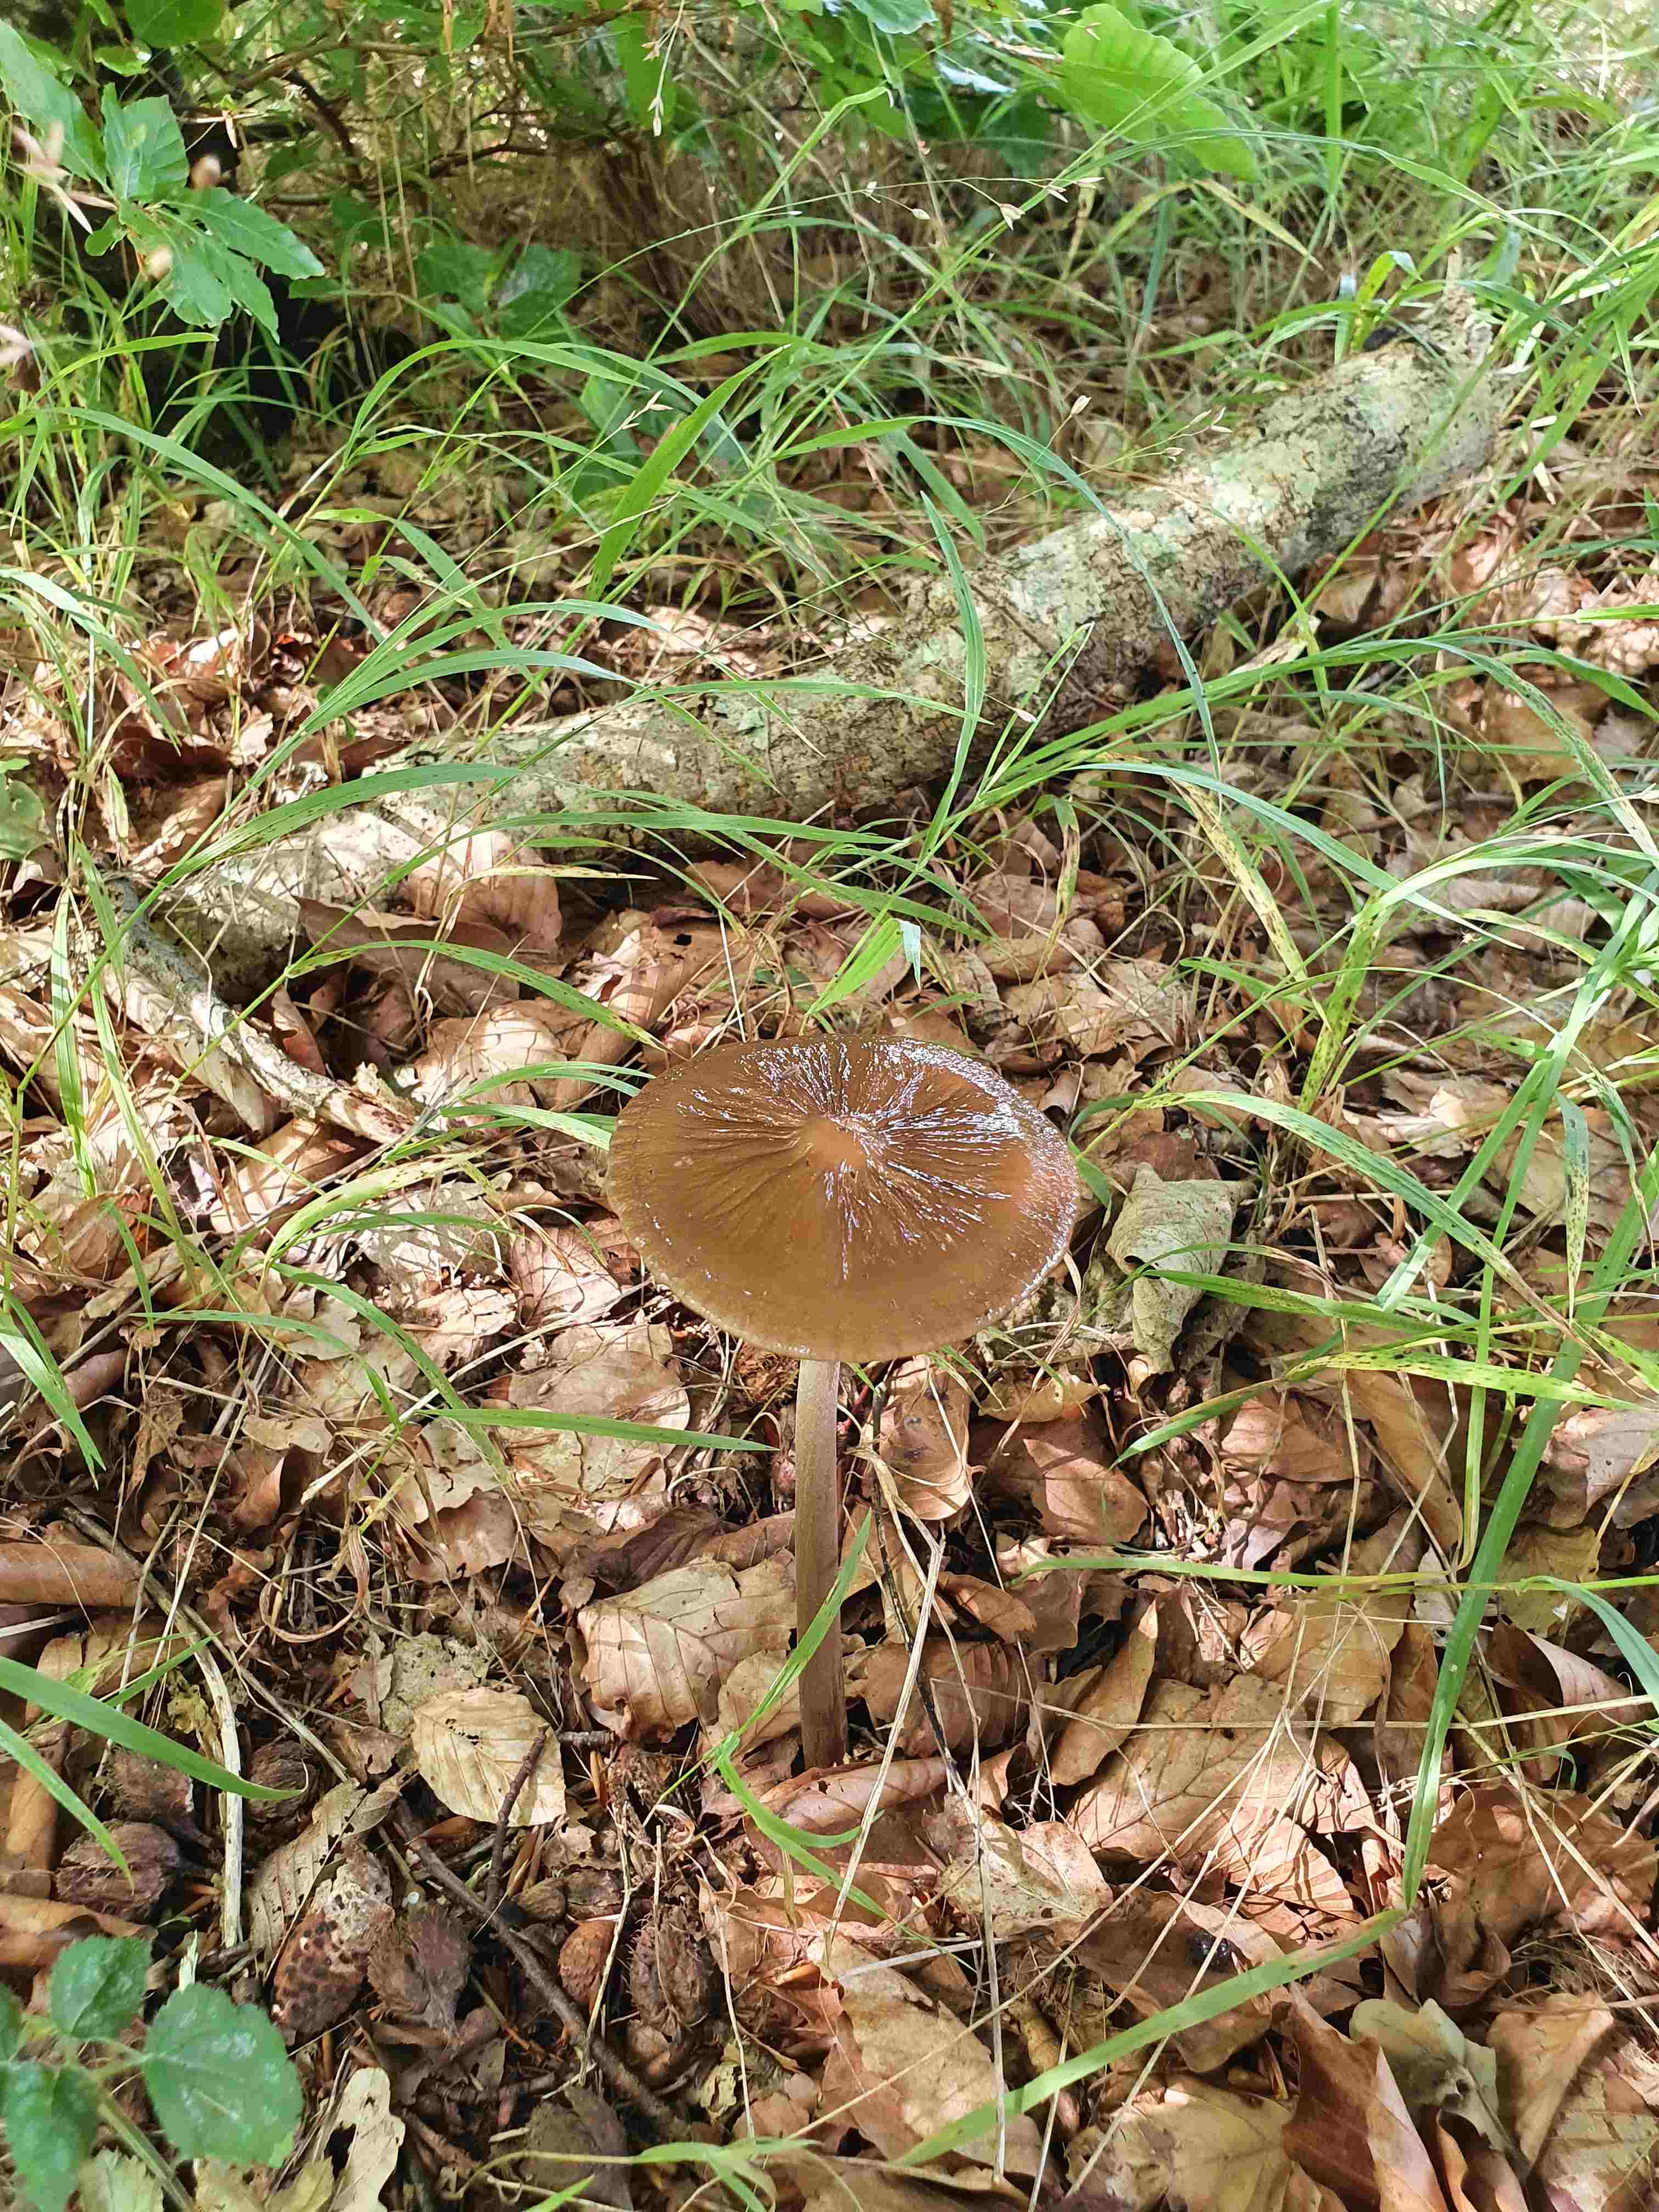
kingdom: Fungi
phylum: Basidiomycota
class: Agaricomycetes
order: Agaricales
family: Physalacriaceae
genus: Hymenopellis
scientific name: Hymenopellis radicata
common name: almindelig pælerodshat
